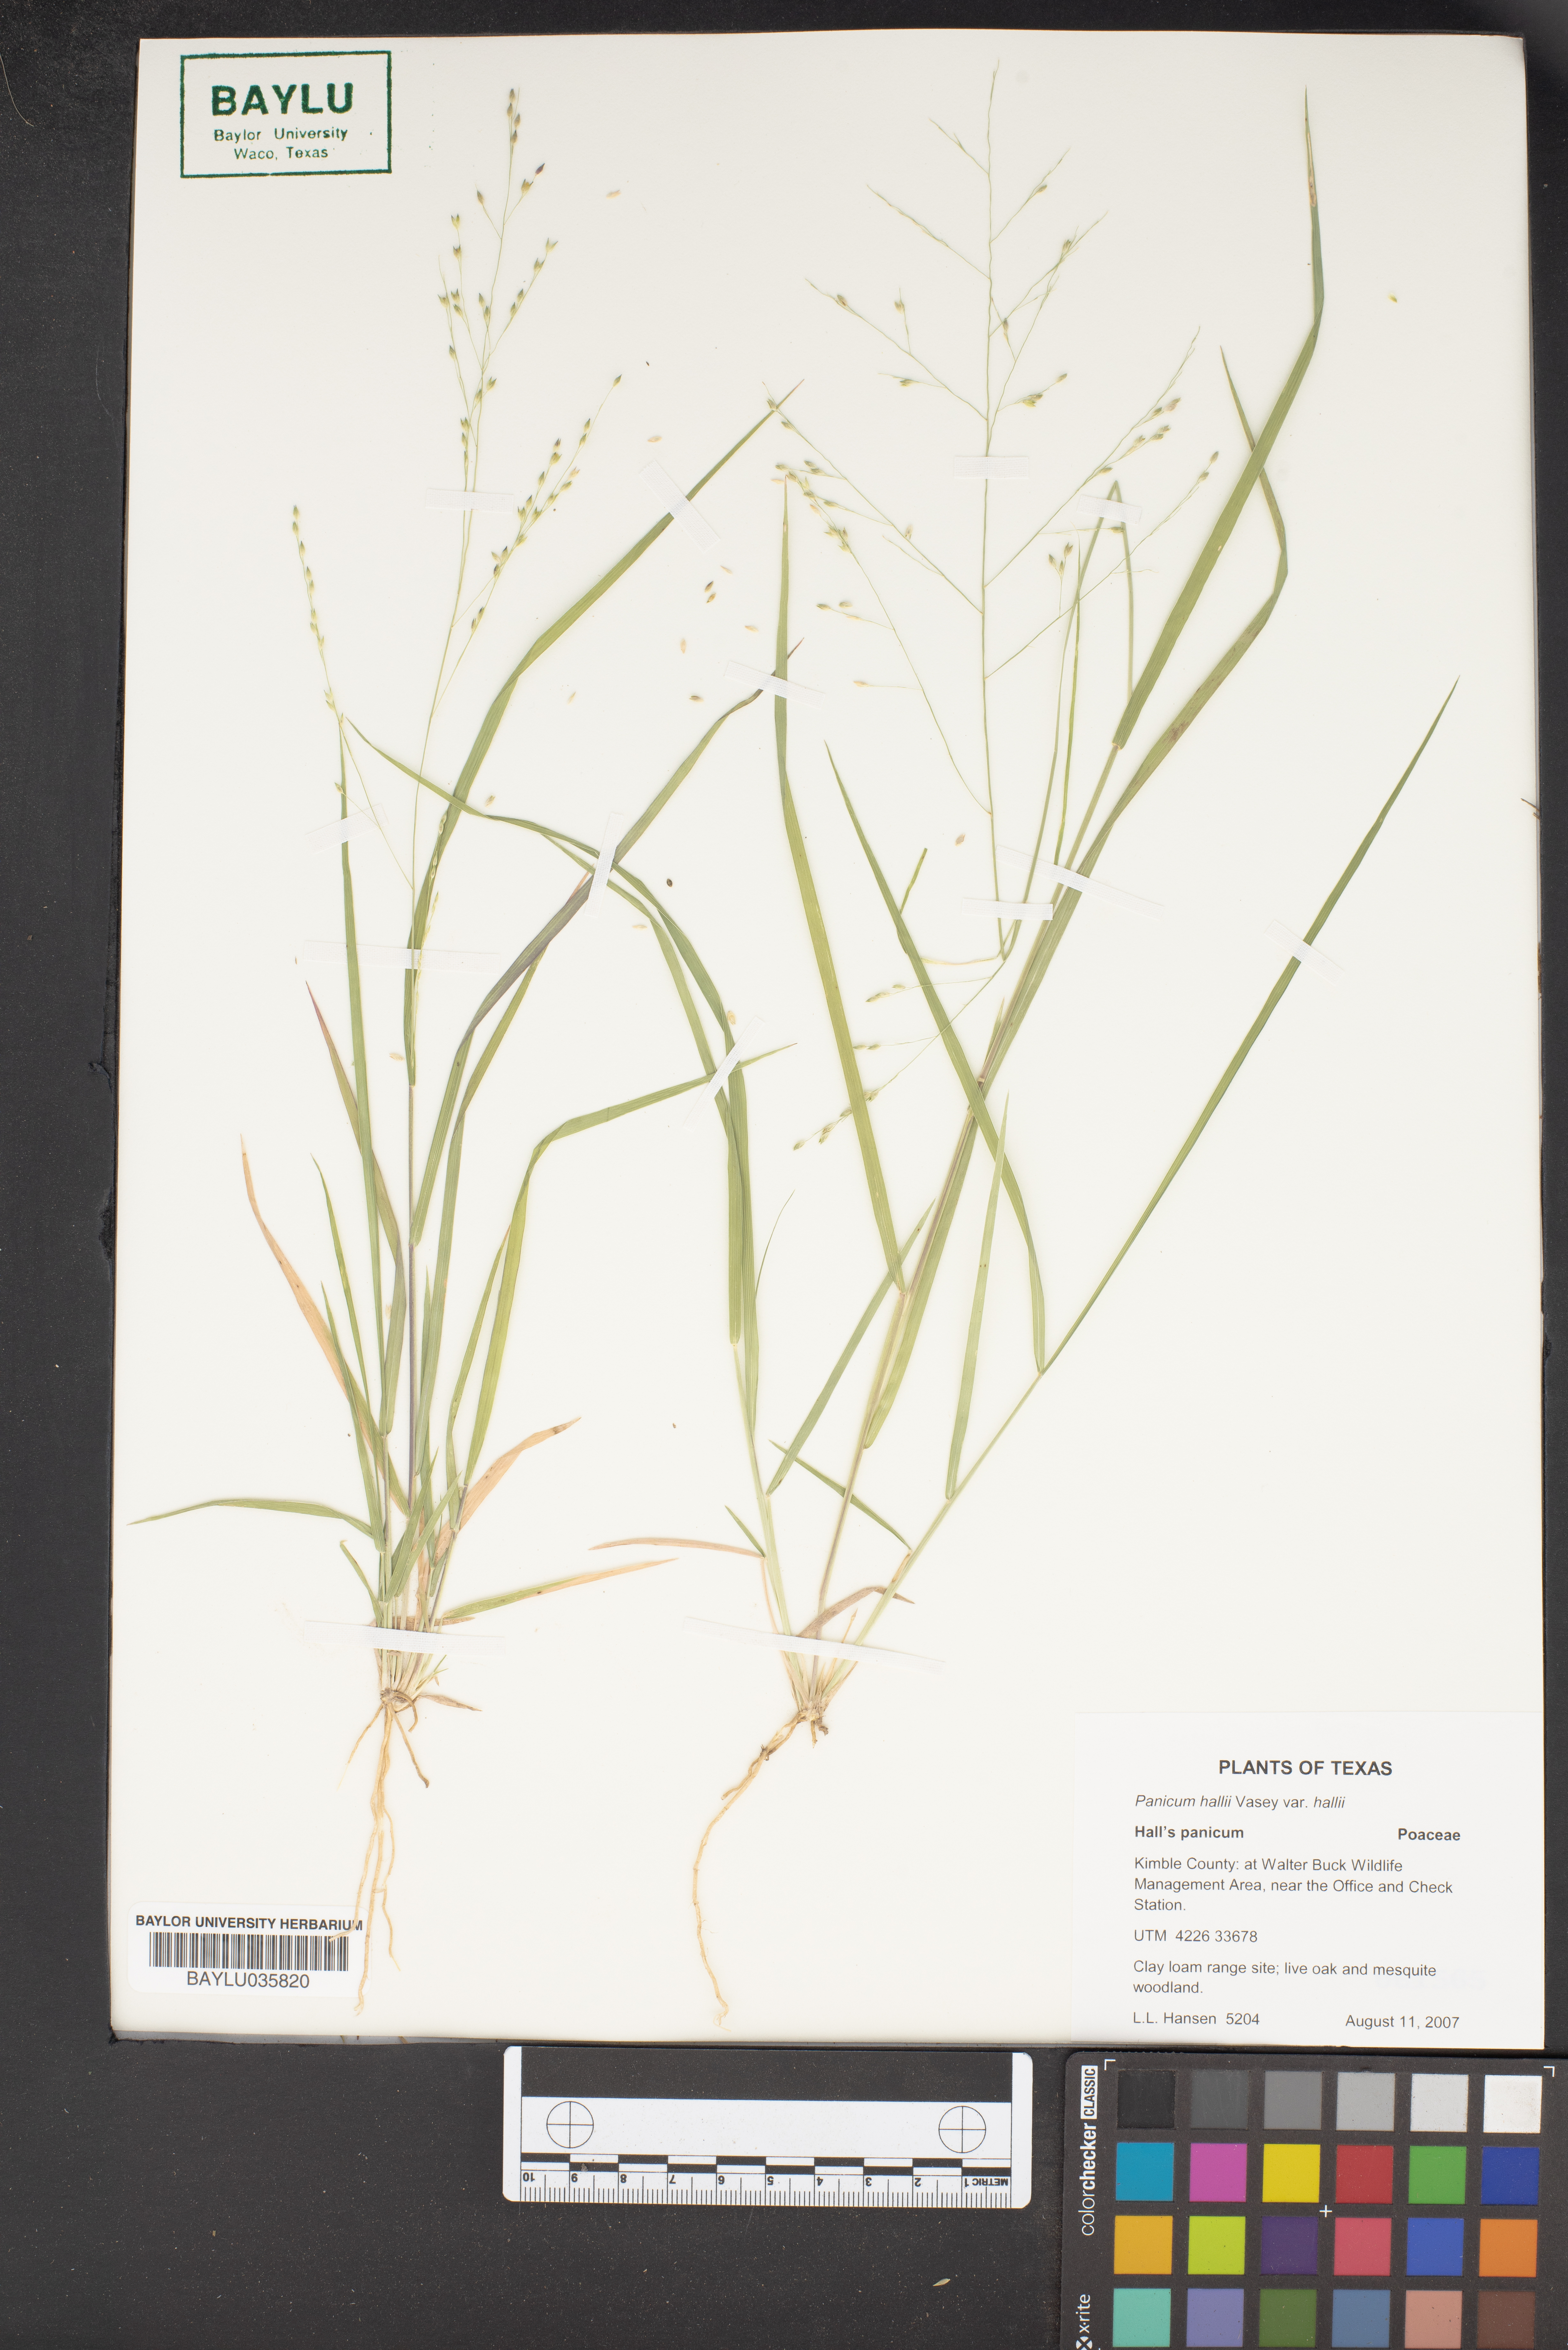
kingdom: Plantae
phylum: Tracheophyta
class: Liliopsida
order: Poales
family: Poaceae
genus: Panicum
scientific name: Panicum hallii
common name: Hall's witchgrass
